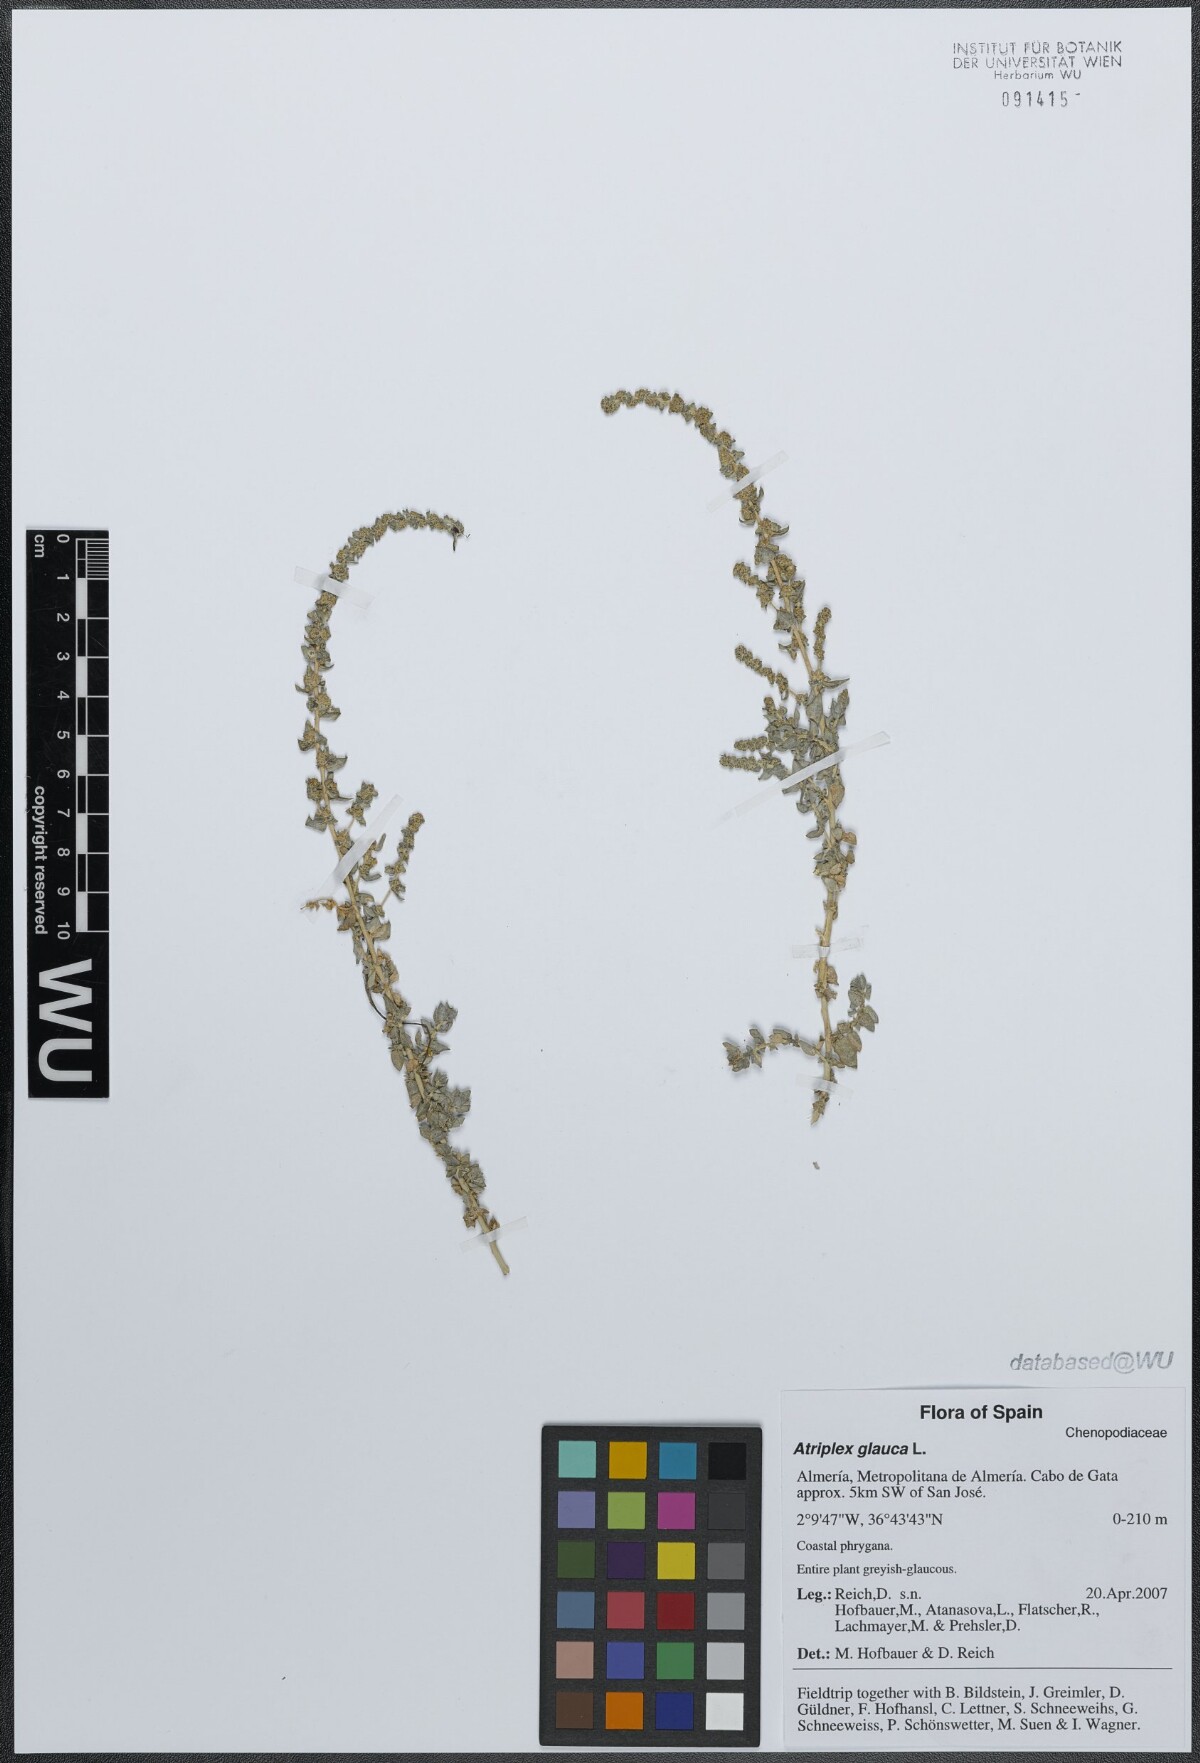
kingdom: Plantae
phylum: Tracheophyta
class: Magnoliopsida
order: Caryophyllales
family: Amaranthaceae
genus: Atriplex
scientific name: Atriplex glauca
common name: Waxy saltbush
